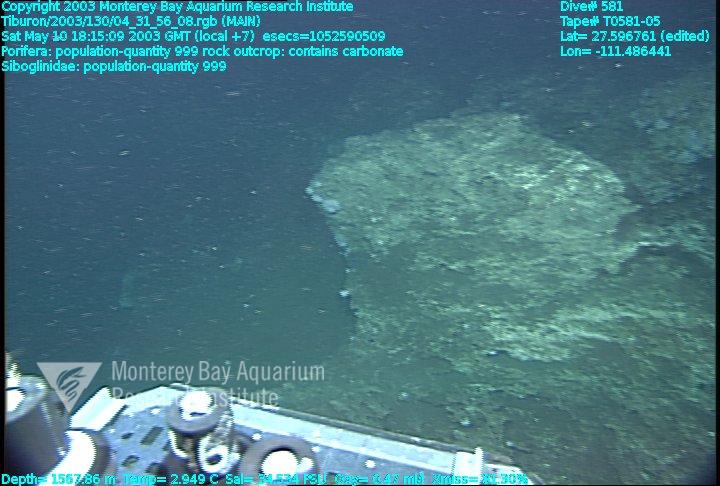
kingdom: Animalia
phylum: Porifera
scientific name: Porifera
